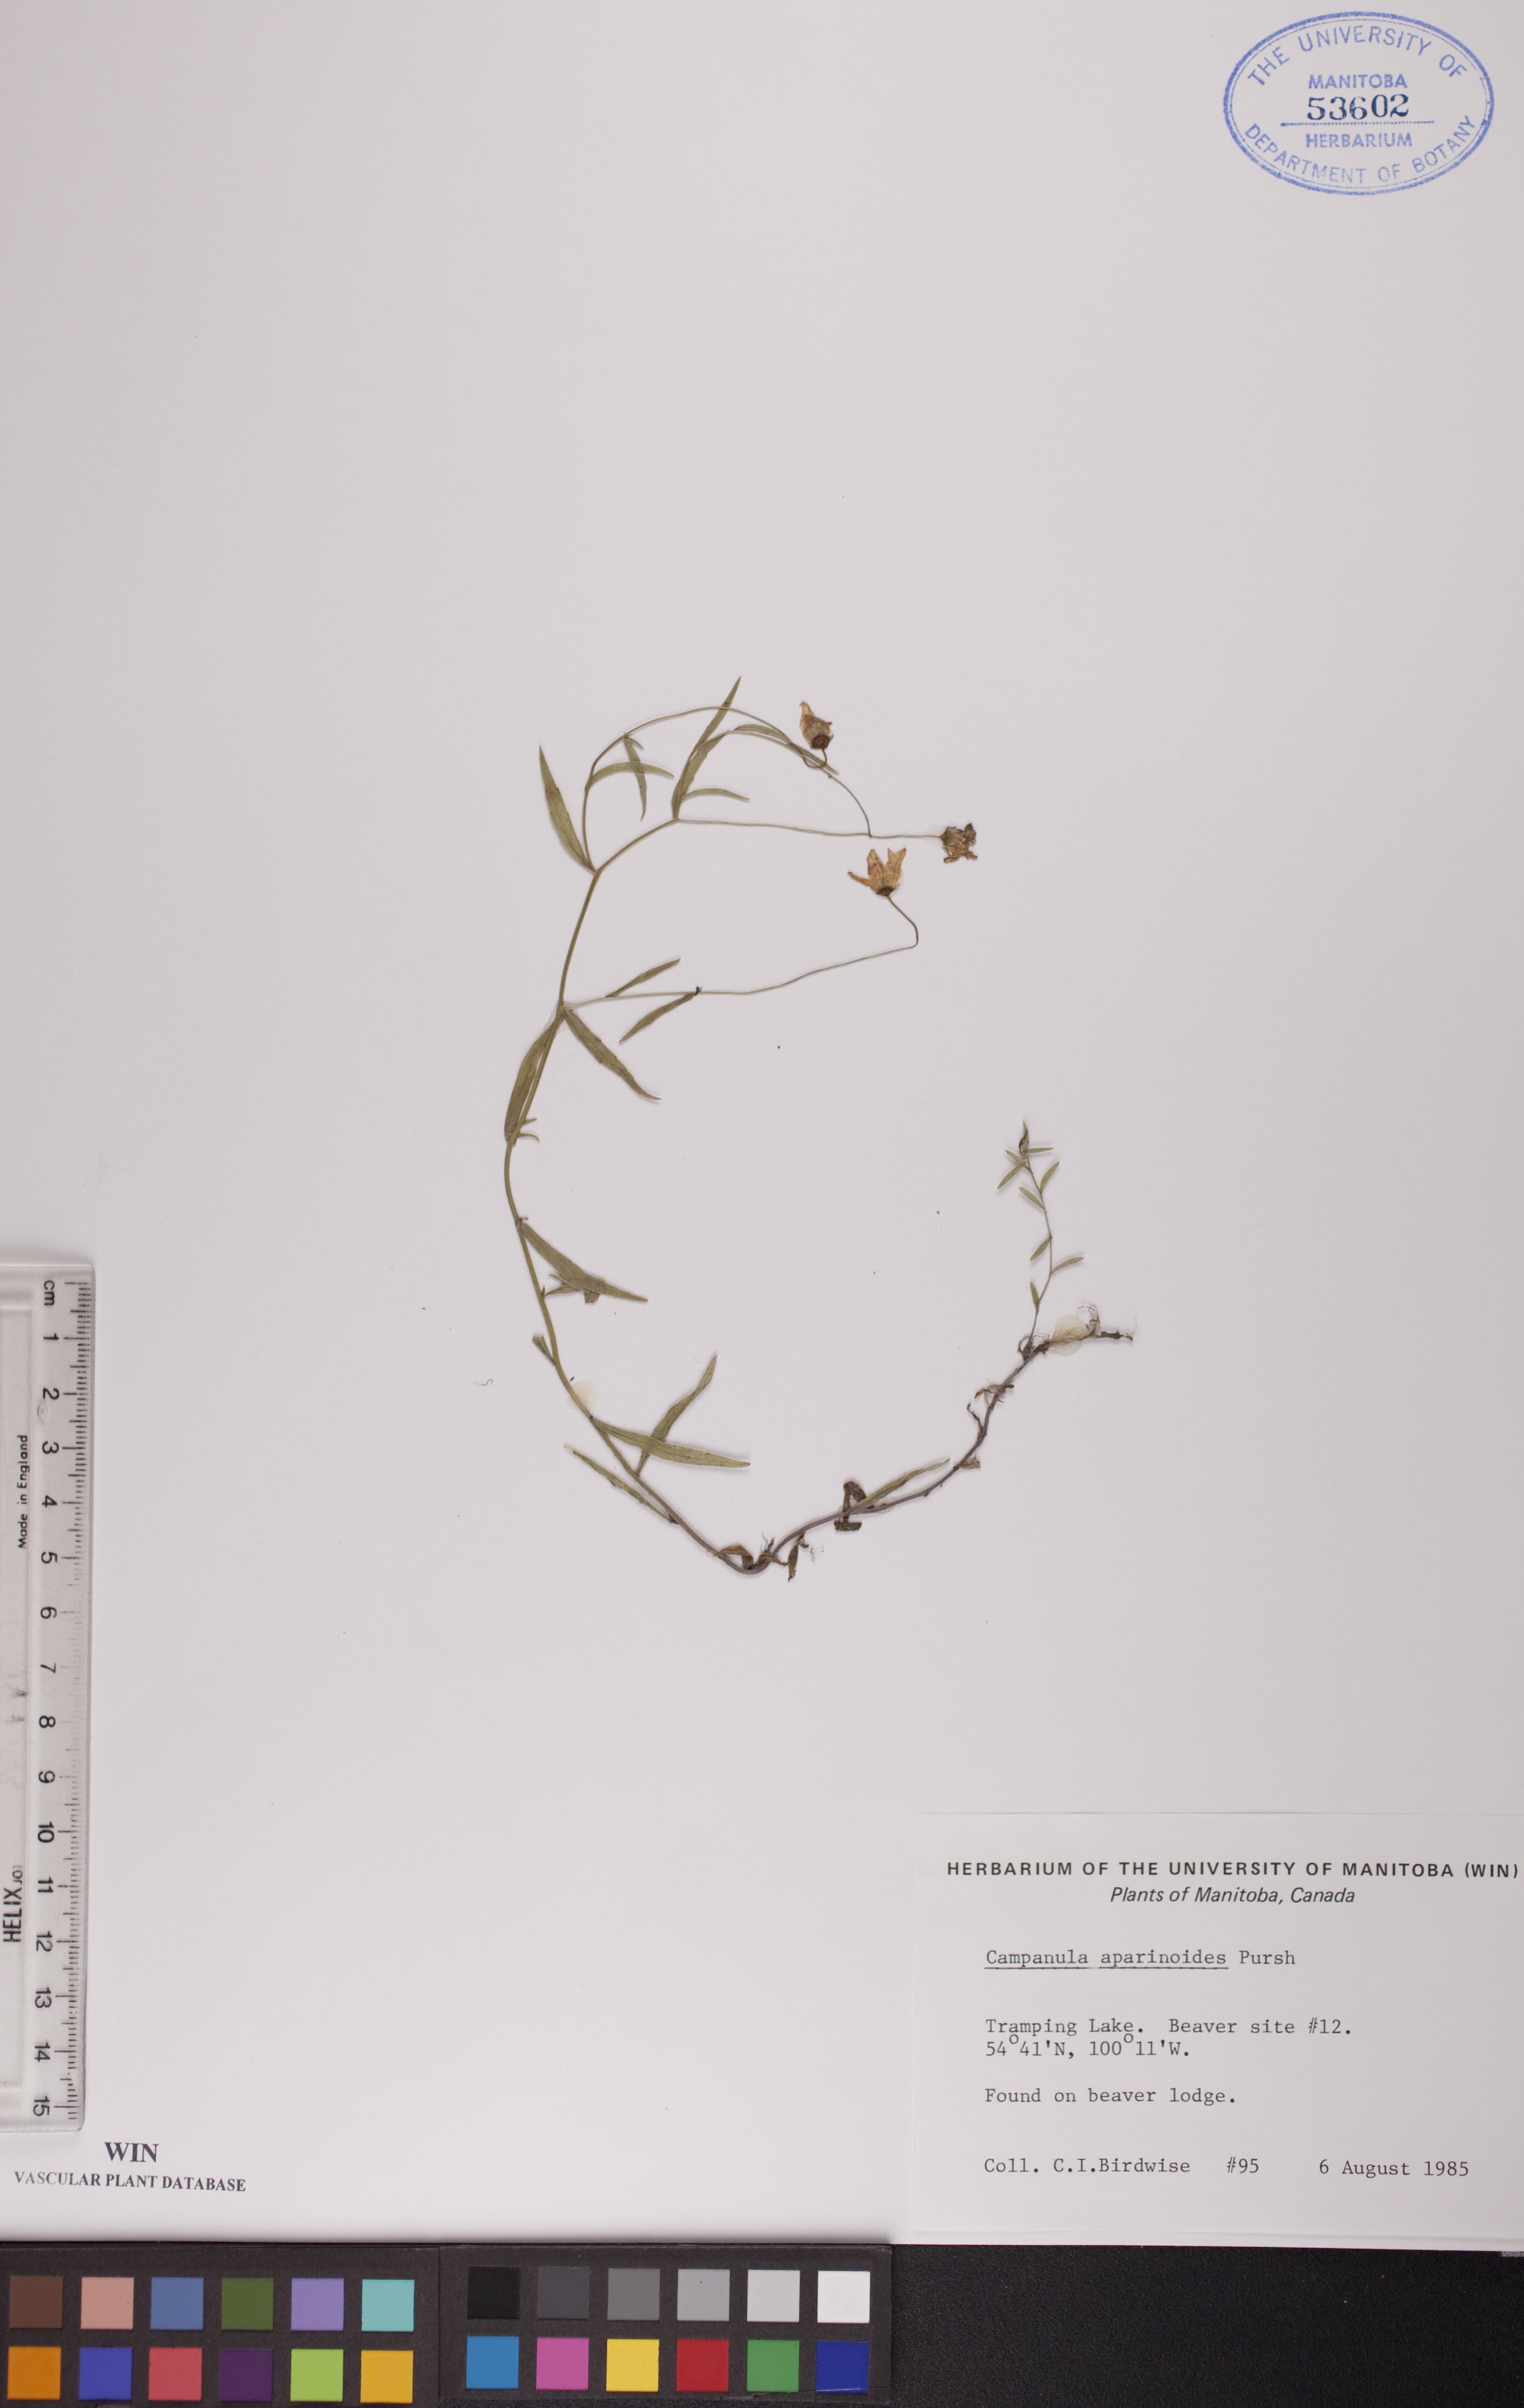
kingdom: Plantae
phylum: Tracheophyta
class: Magnoliopsida
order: Asterales
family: Campanulaceae
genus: Palustricodon
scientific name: Palustricodon aparinoides
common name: Bedstraw bellflower
